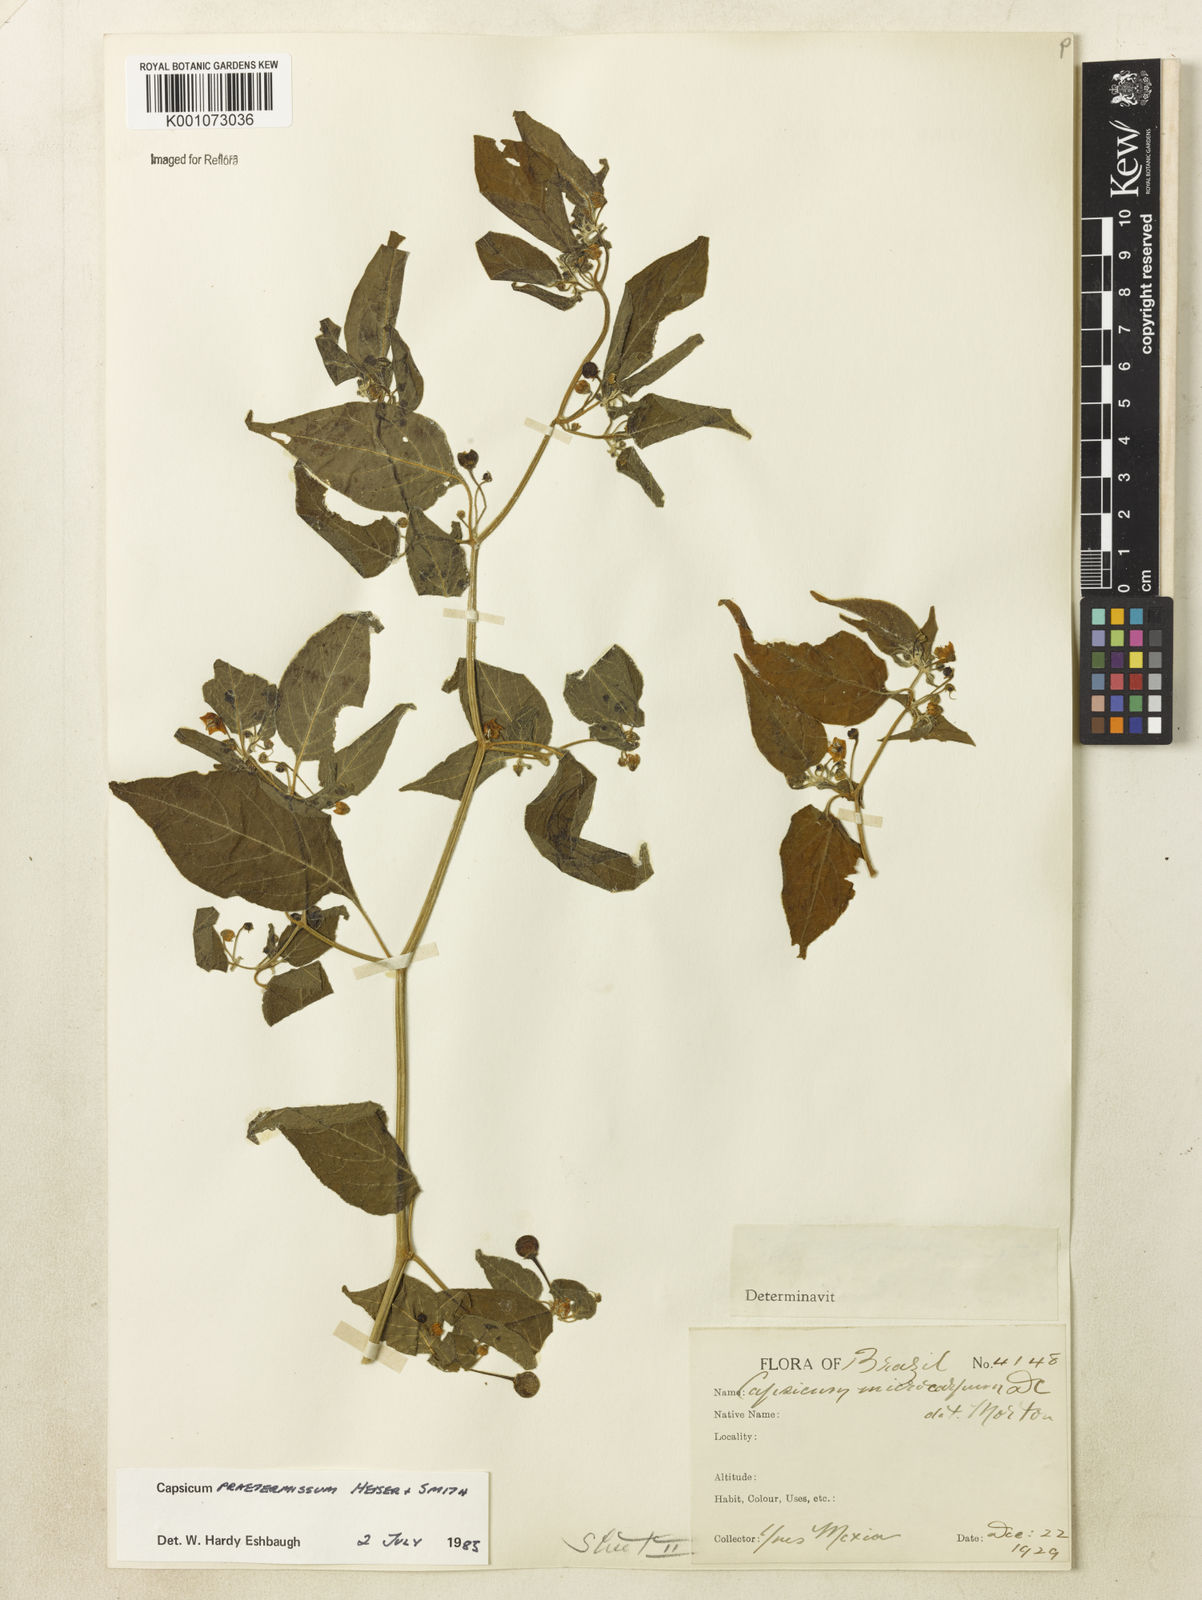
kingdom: Plantae
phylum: Tracheophyta
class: Magnoliopsida
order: Solanales
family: Solanaceae
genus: Capsicum
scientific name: Capsicum rabenii
